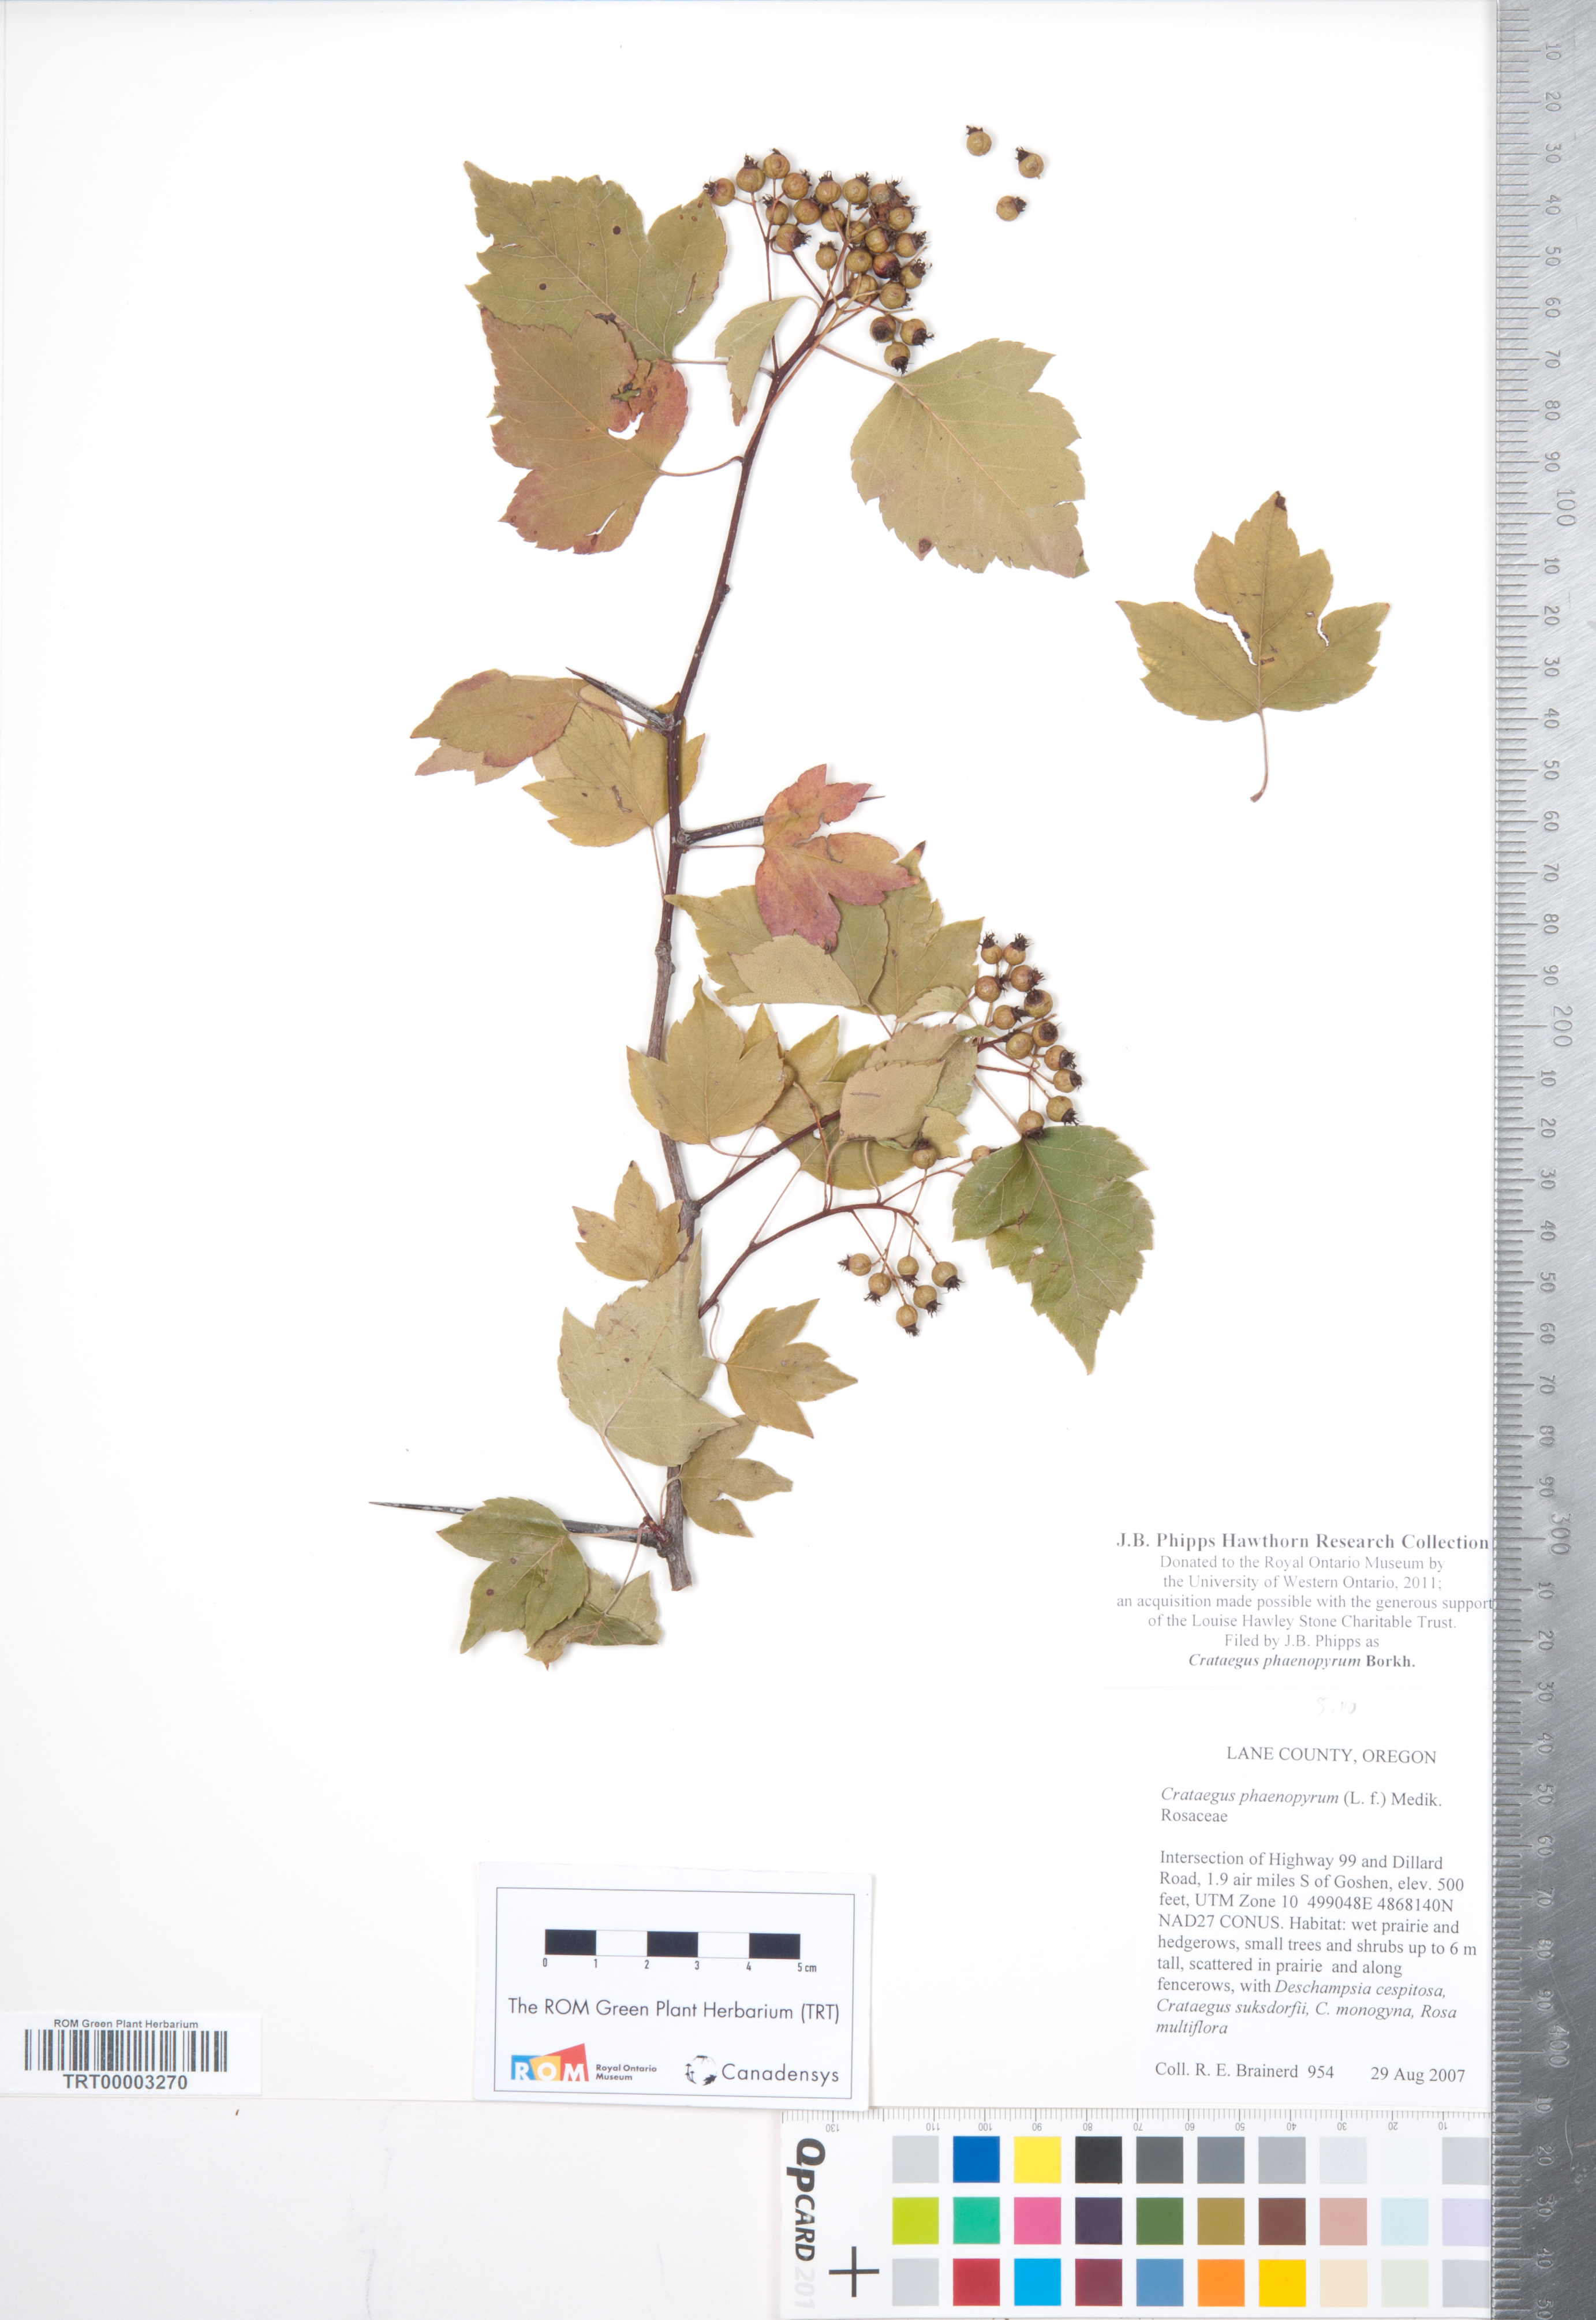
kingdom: Plantae
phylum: Tracheophyta
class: Magnoliopsida
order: Rosales
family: Rosaceae
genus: Crataegus
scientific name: Crataegus phaenopyrum
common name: Washington hawthorn
